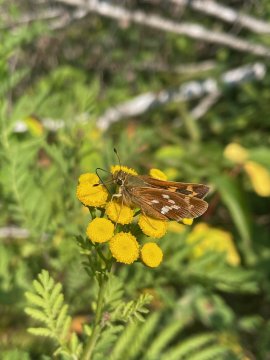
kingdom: Animalia
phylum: Arthropoda
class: Insecta
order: Lepidoptera
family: Hesperiidae
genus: Hesperia
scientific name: Hesperia leonardus
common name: Leonard's Skipper
